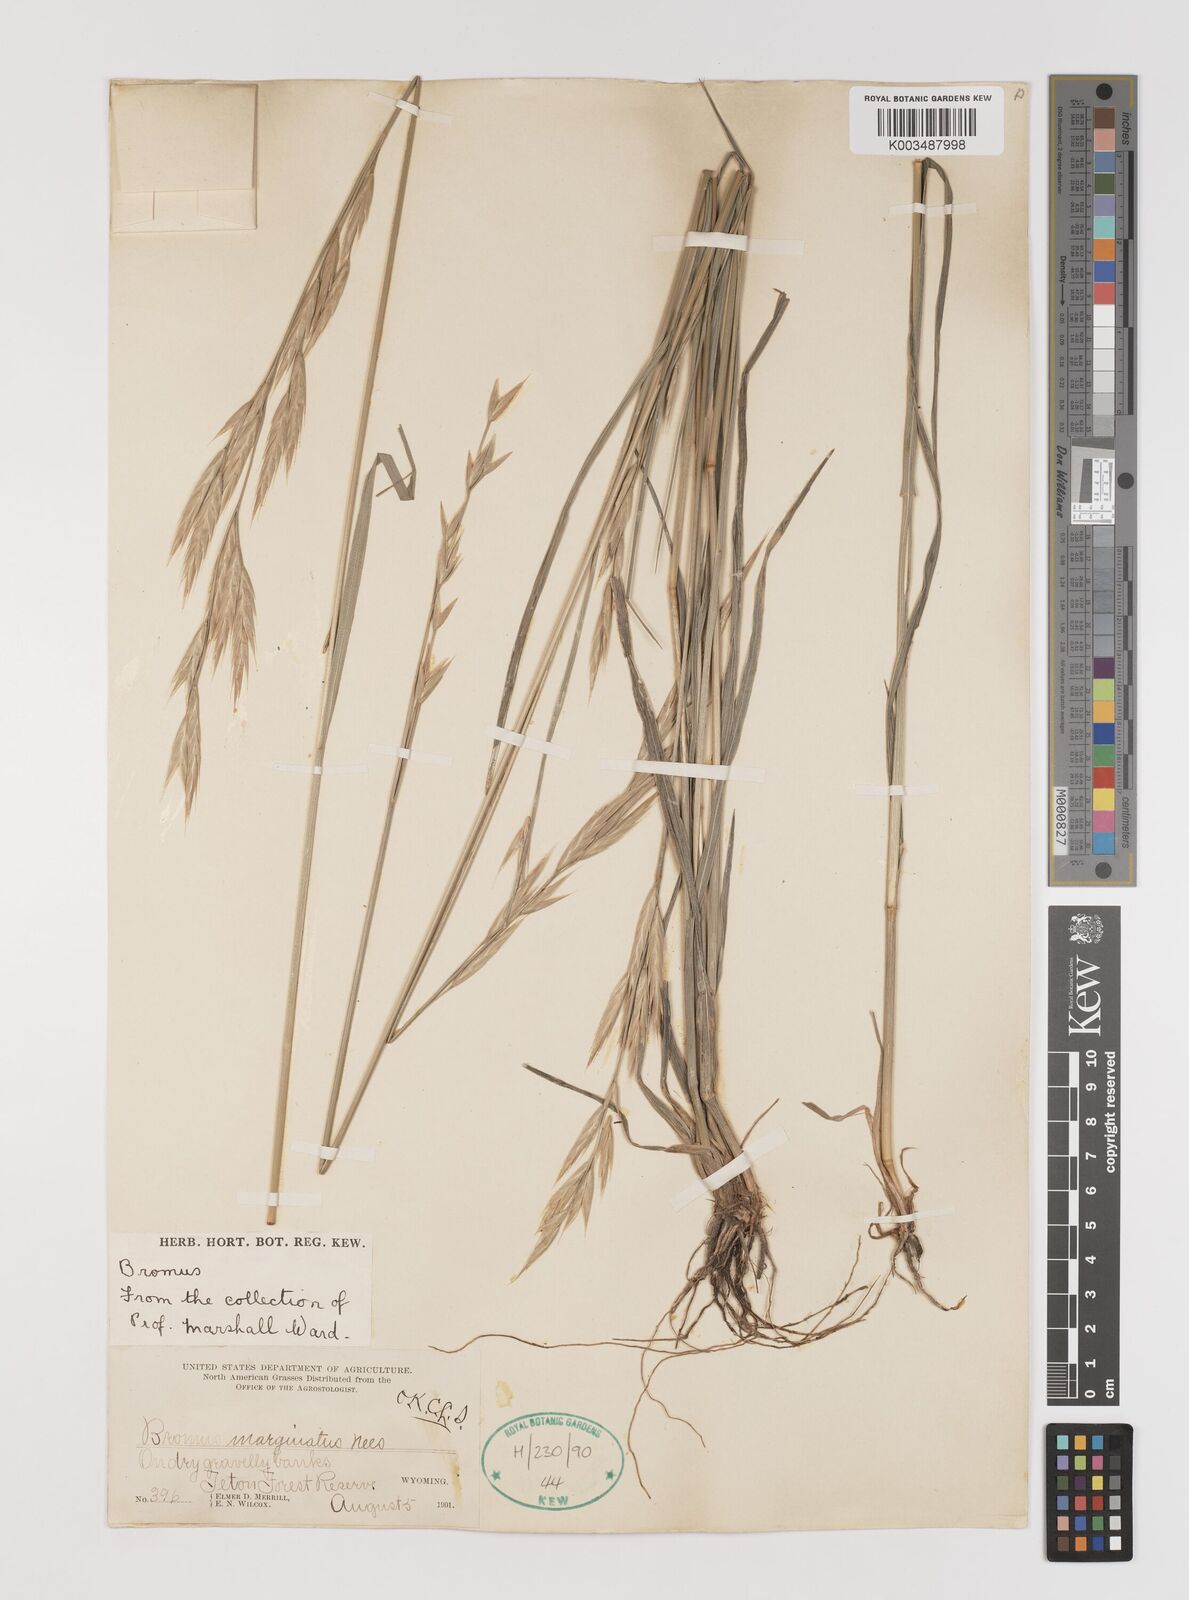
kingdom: Plantae
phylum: Tracheophyta
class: Liliopsida
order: Poales
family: Poaceae
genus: Bromus
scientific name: Bromus marginatus
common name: Western brome
